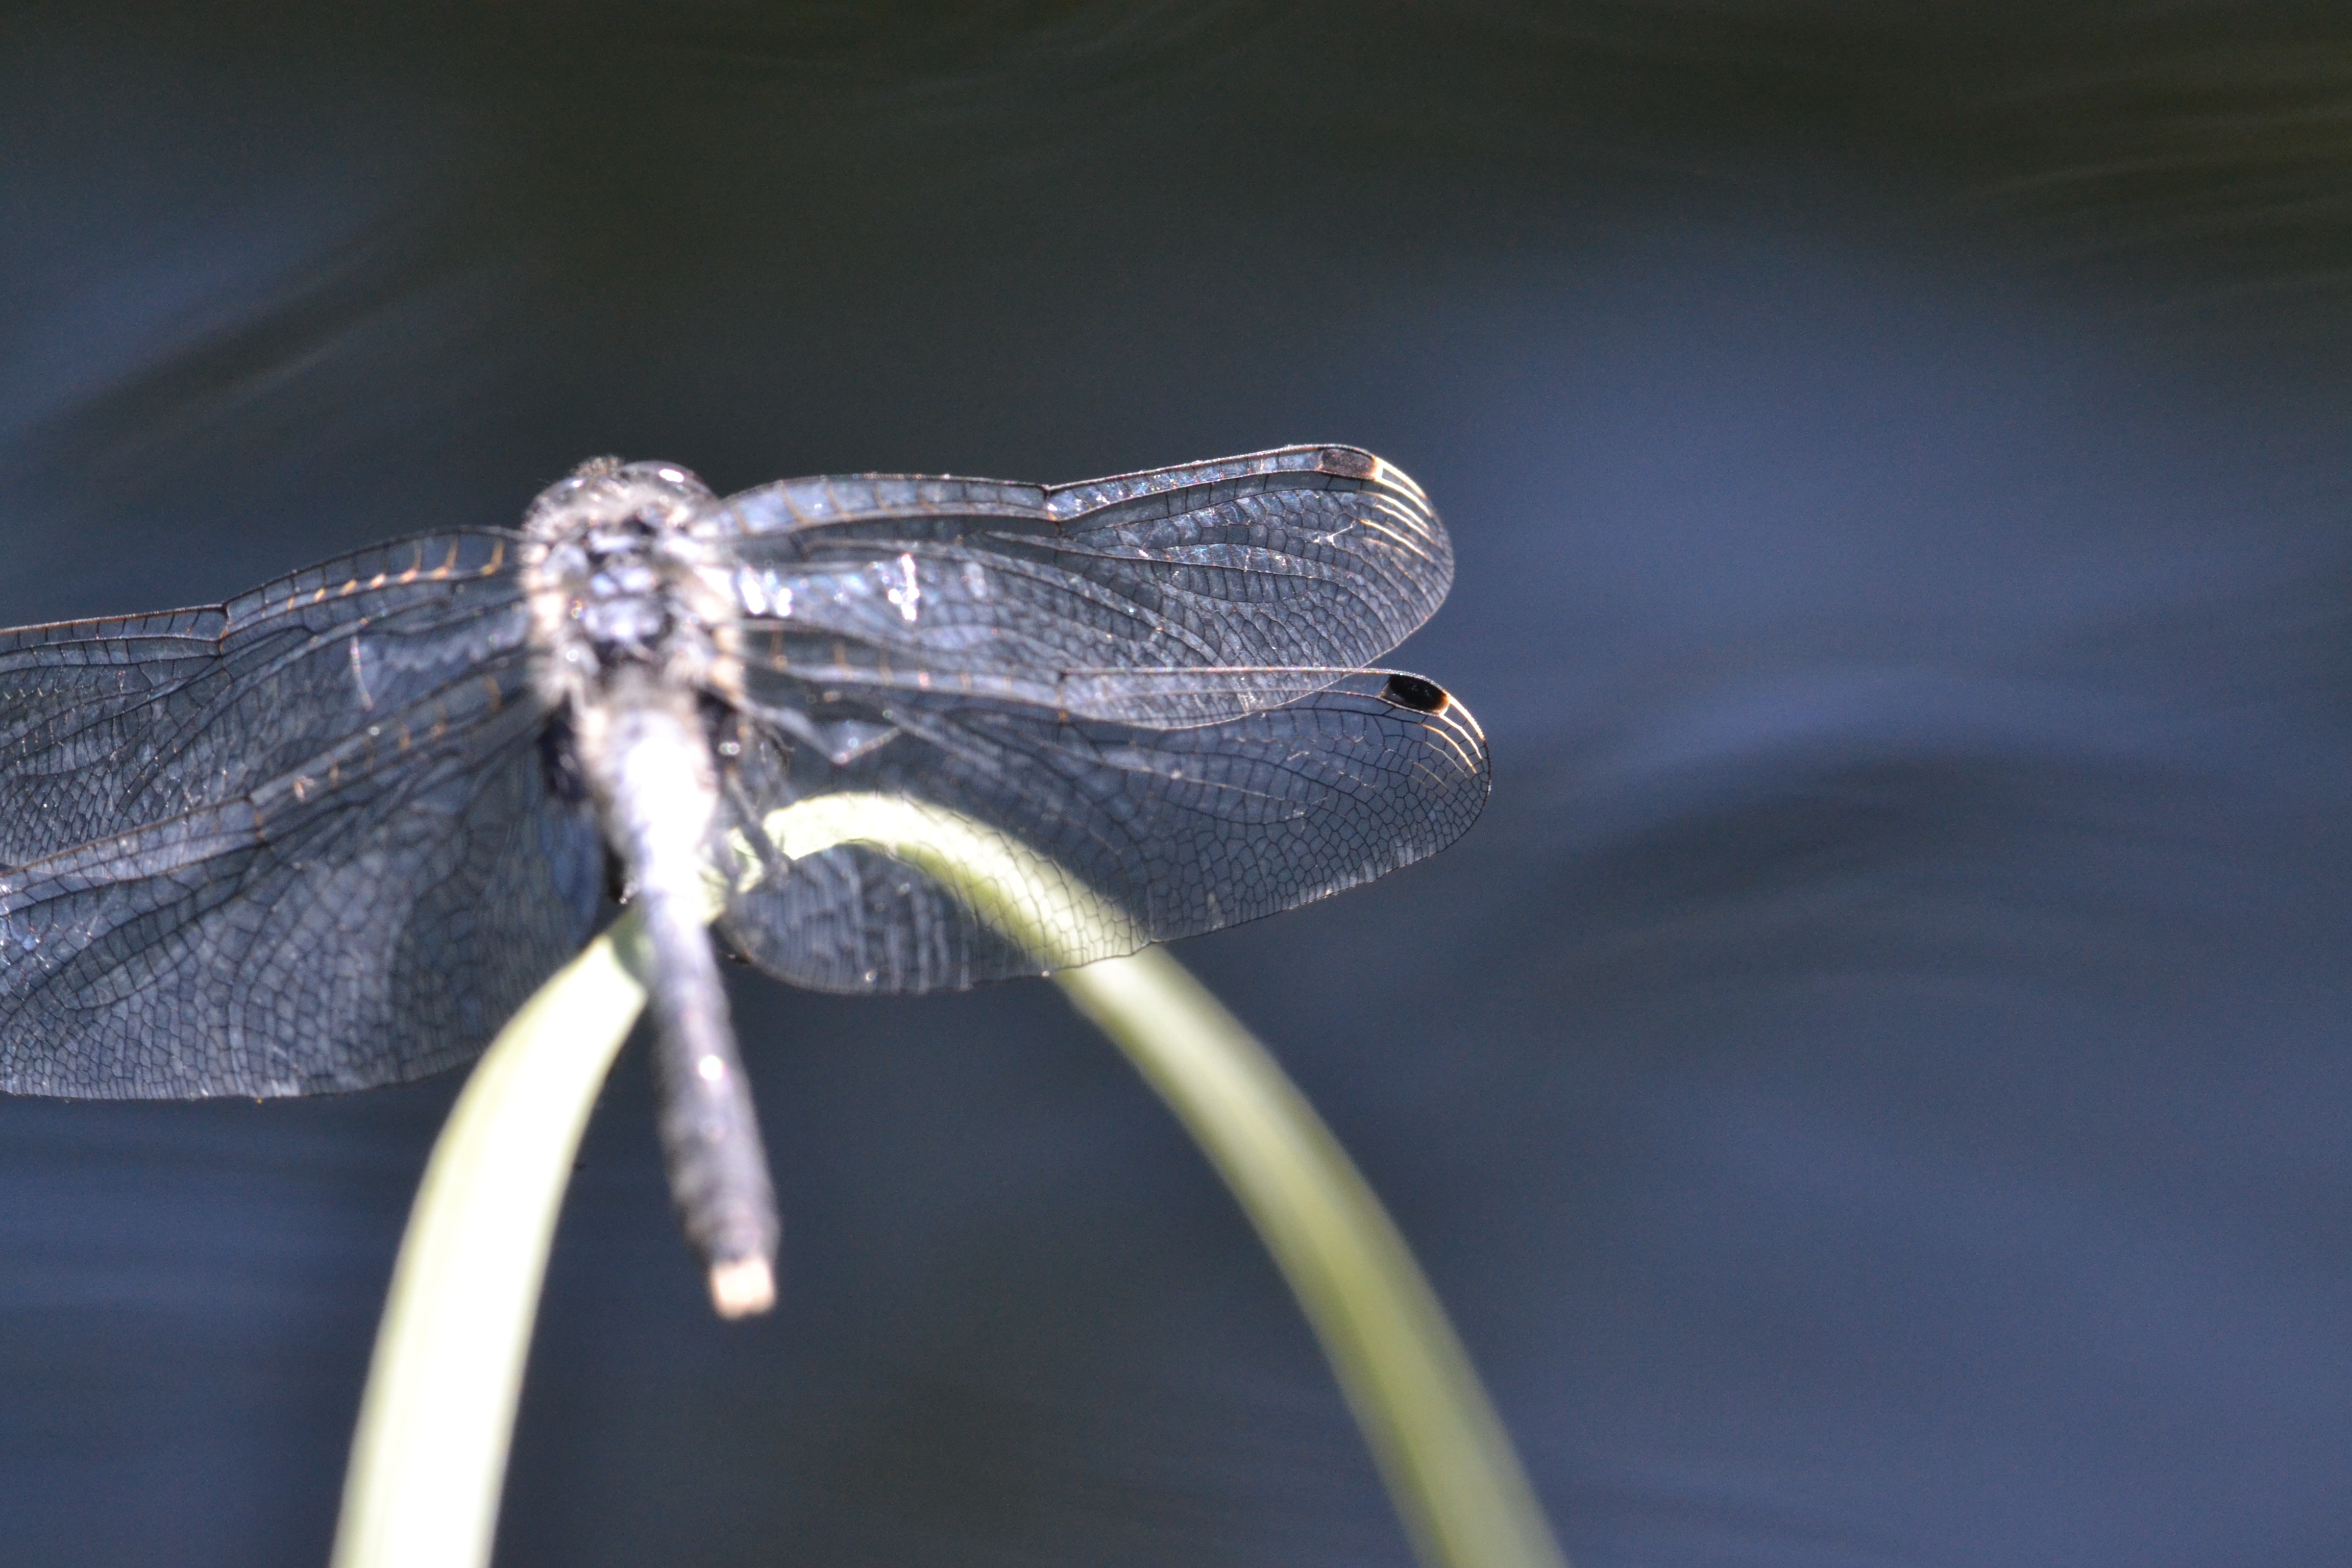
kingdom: Animalia
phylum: Arthropoda
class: Insecta
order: Odonata
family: Libellulidae
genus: Leucorrhinia
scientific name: Leucorrhinia albifrons
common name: Dark whiteface
